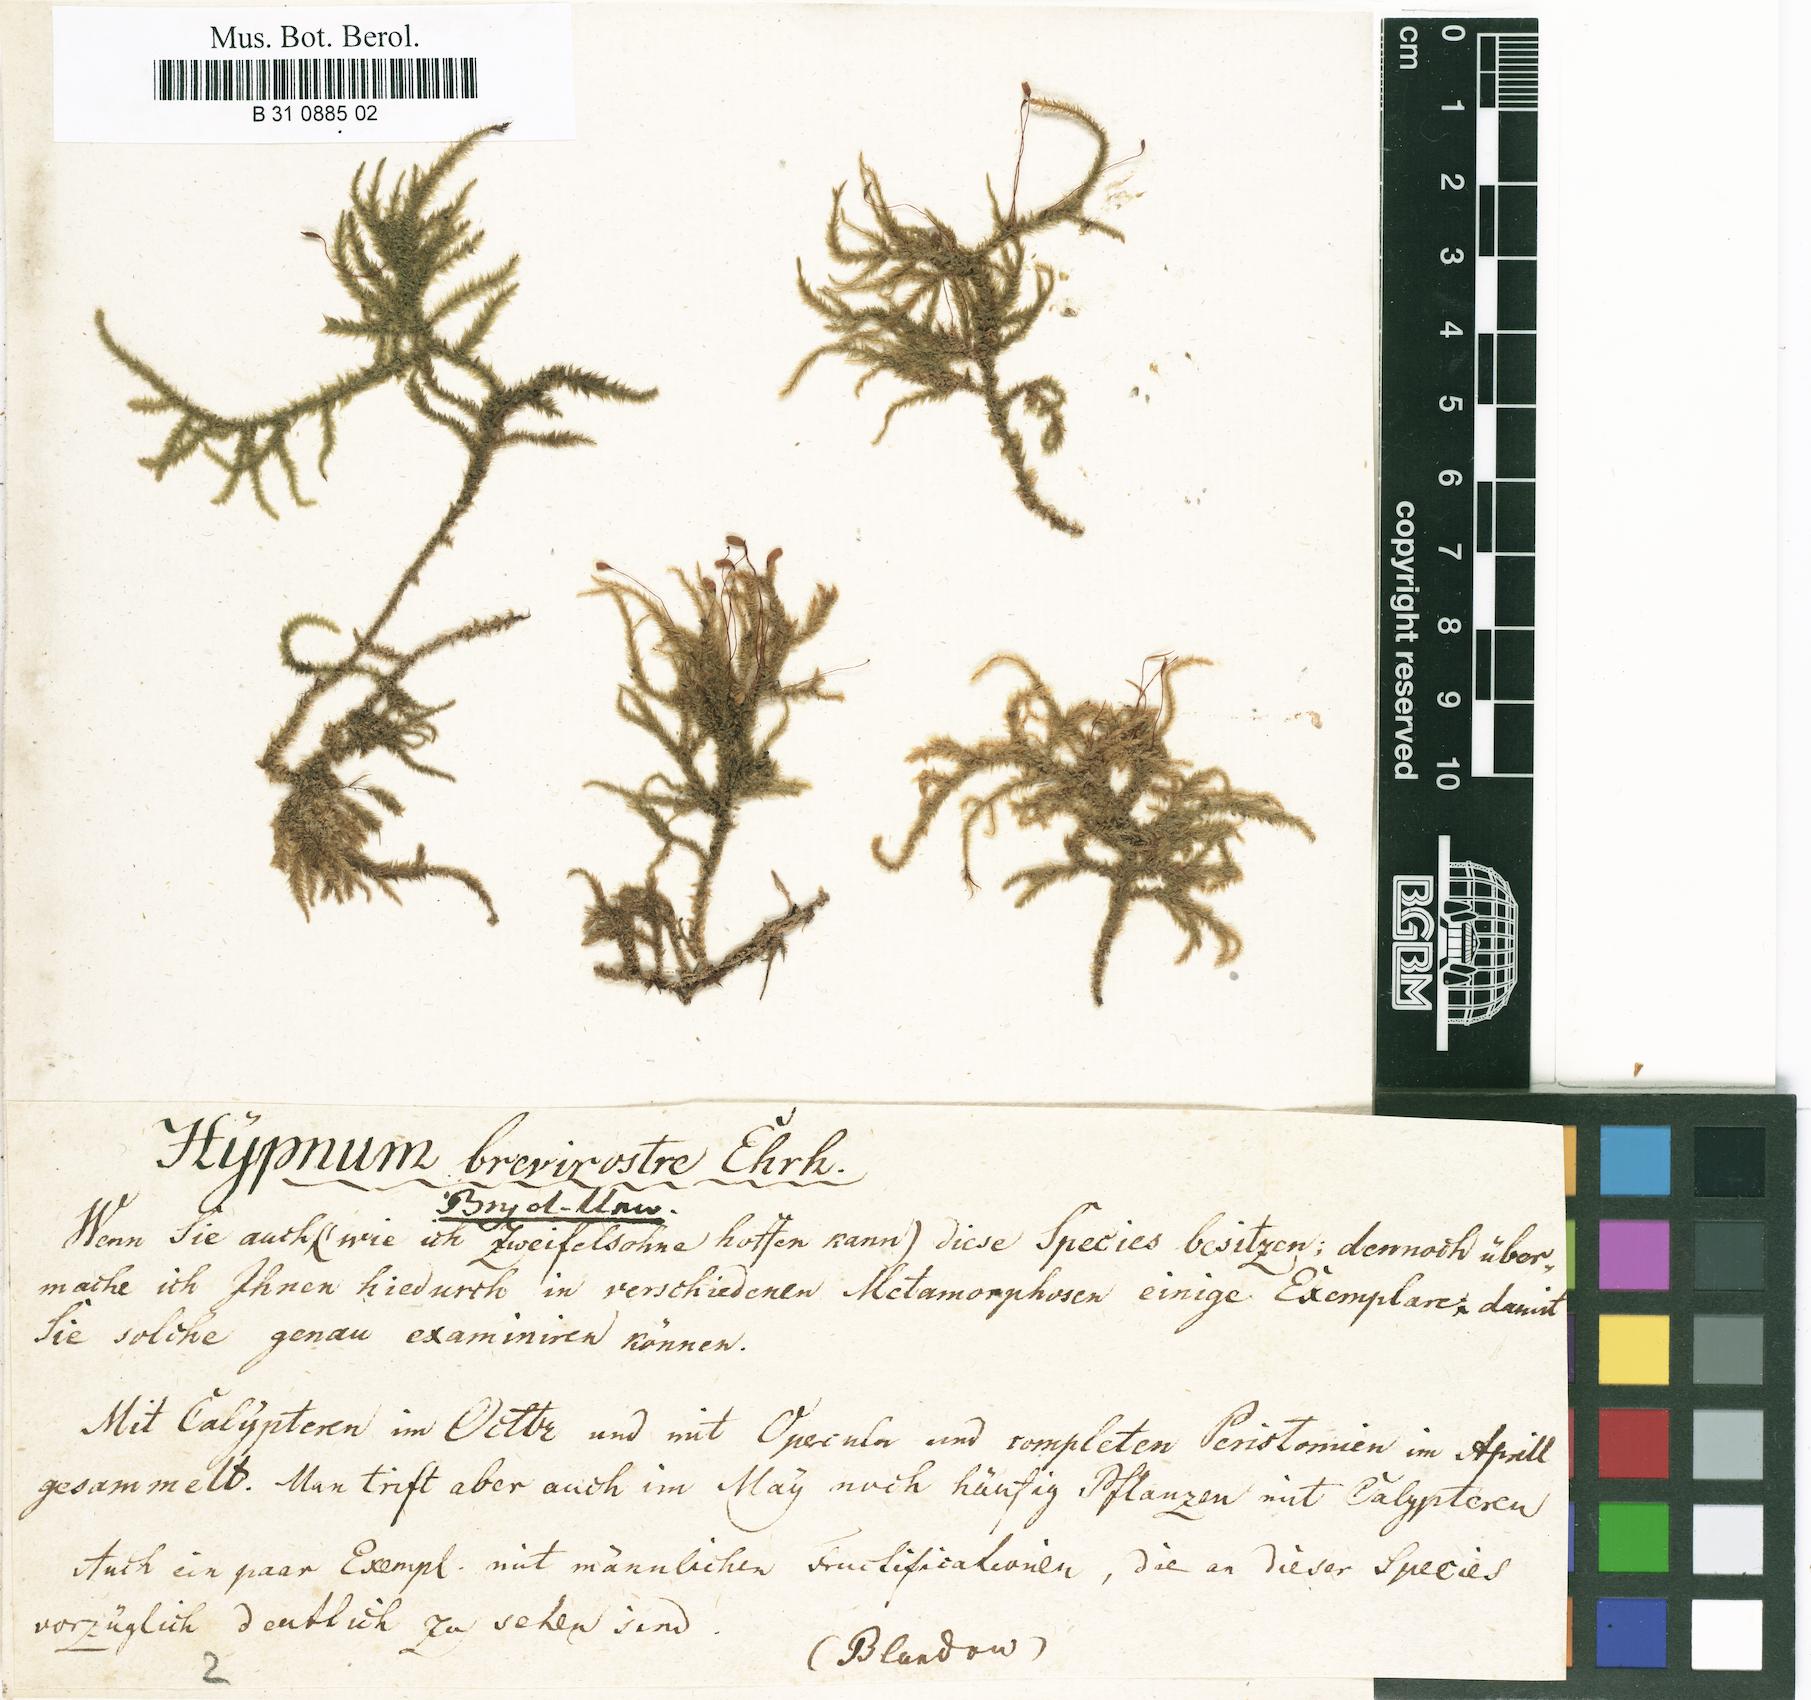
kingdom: Plantae
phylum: Bryophyta
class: Bryopsida
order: Hypnales
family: Hylocomiaceae
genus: Loeskeobryum
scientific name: Loeskeobryum brevirostre
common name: Short-beaked wood-moss
